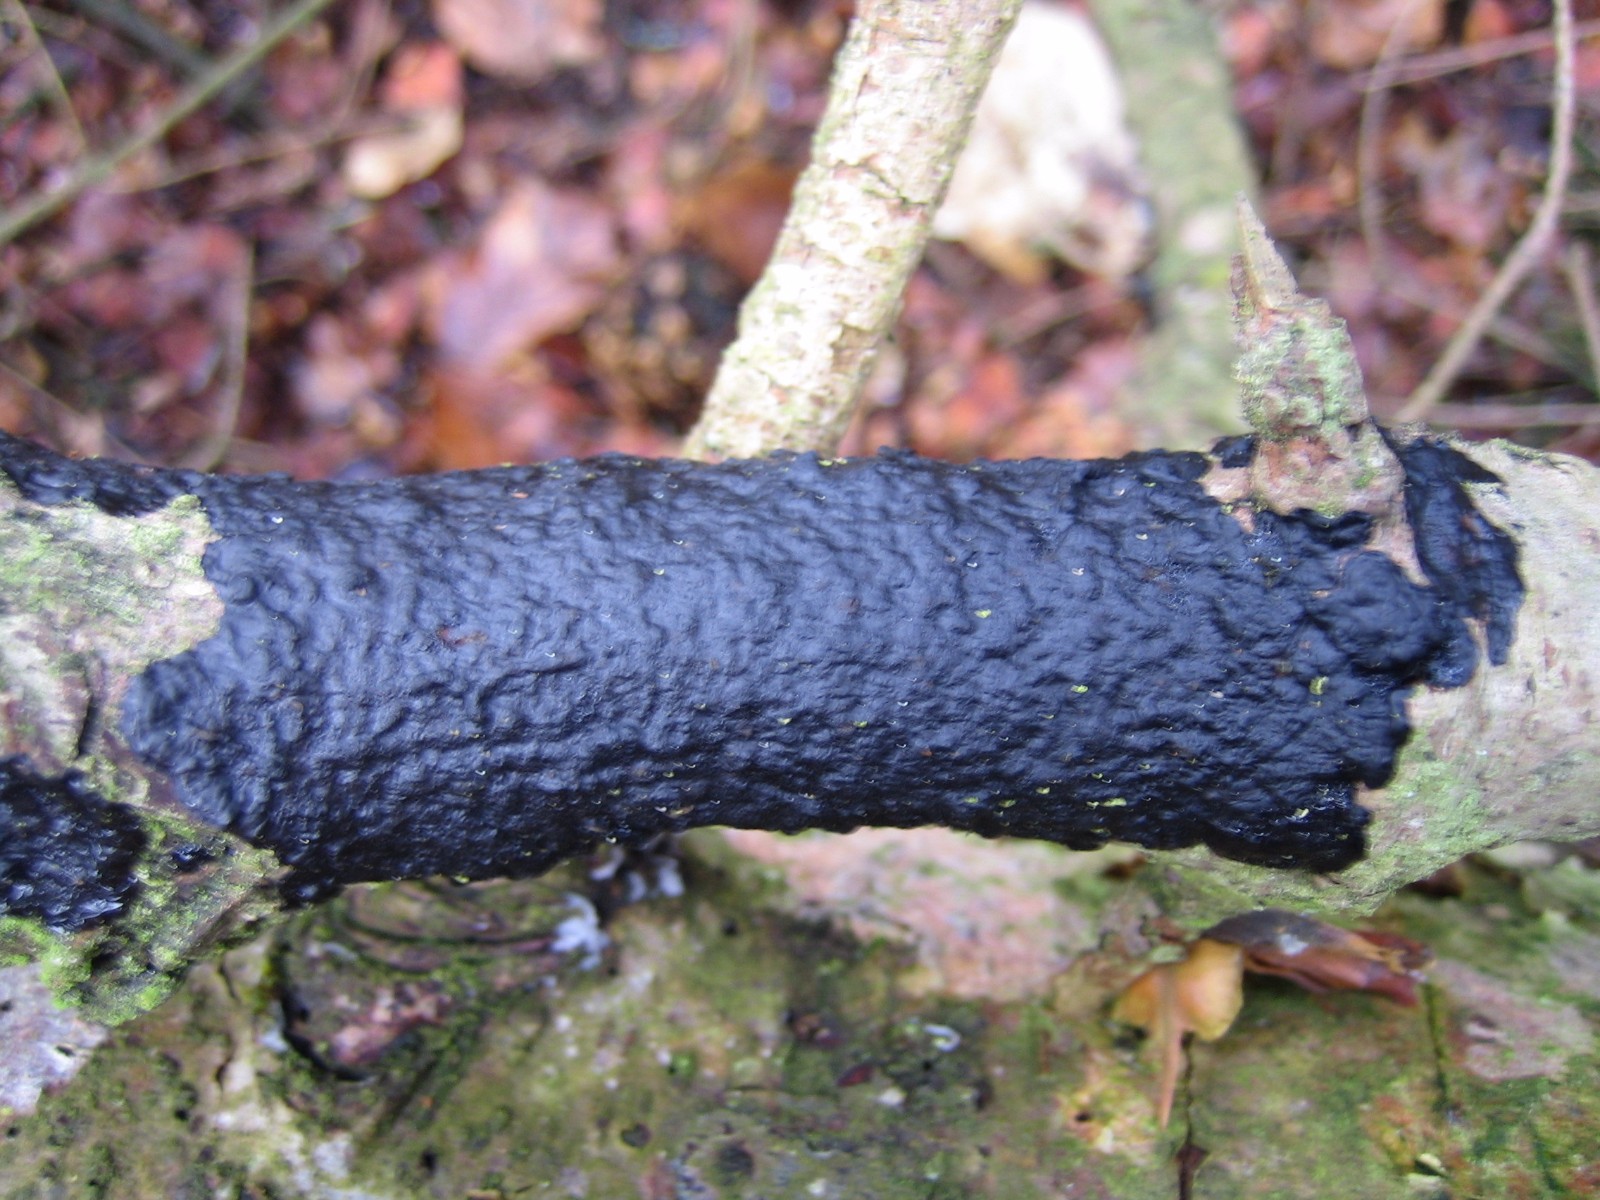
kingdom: Fungi
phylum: Basidiomycota
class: Agaricomycetes
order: Auriculariales
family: Auriculariaceae
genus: Exidia
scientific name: Exidia pithya
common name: gran-bævretop
